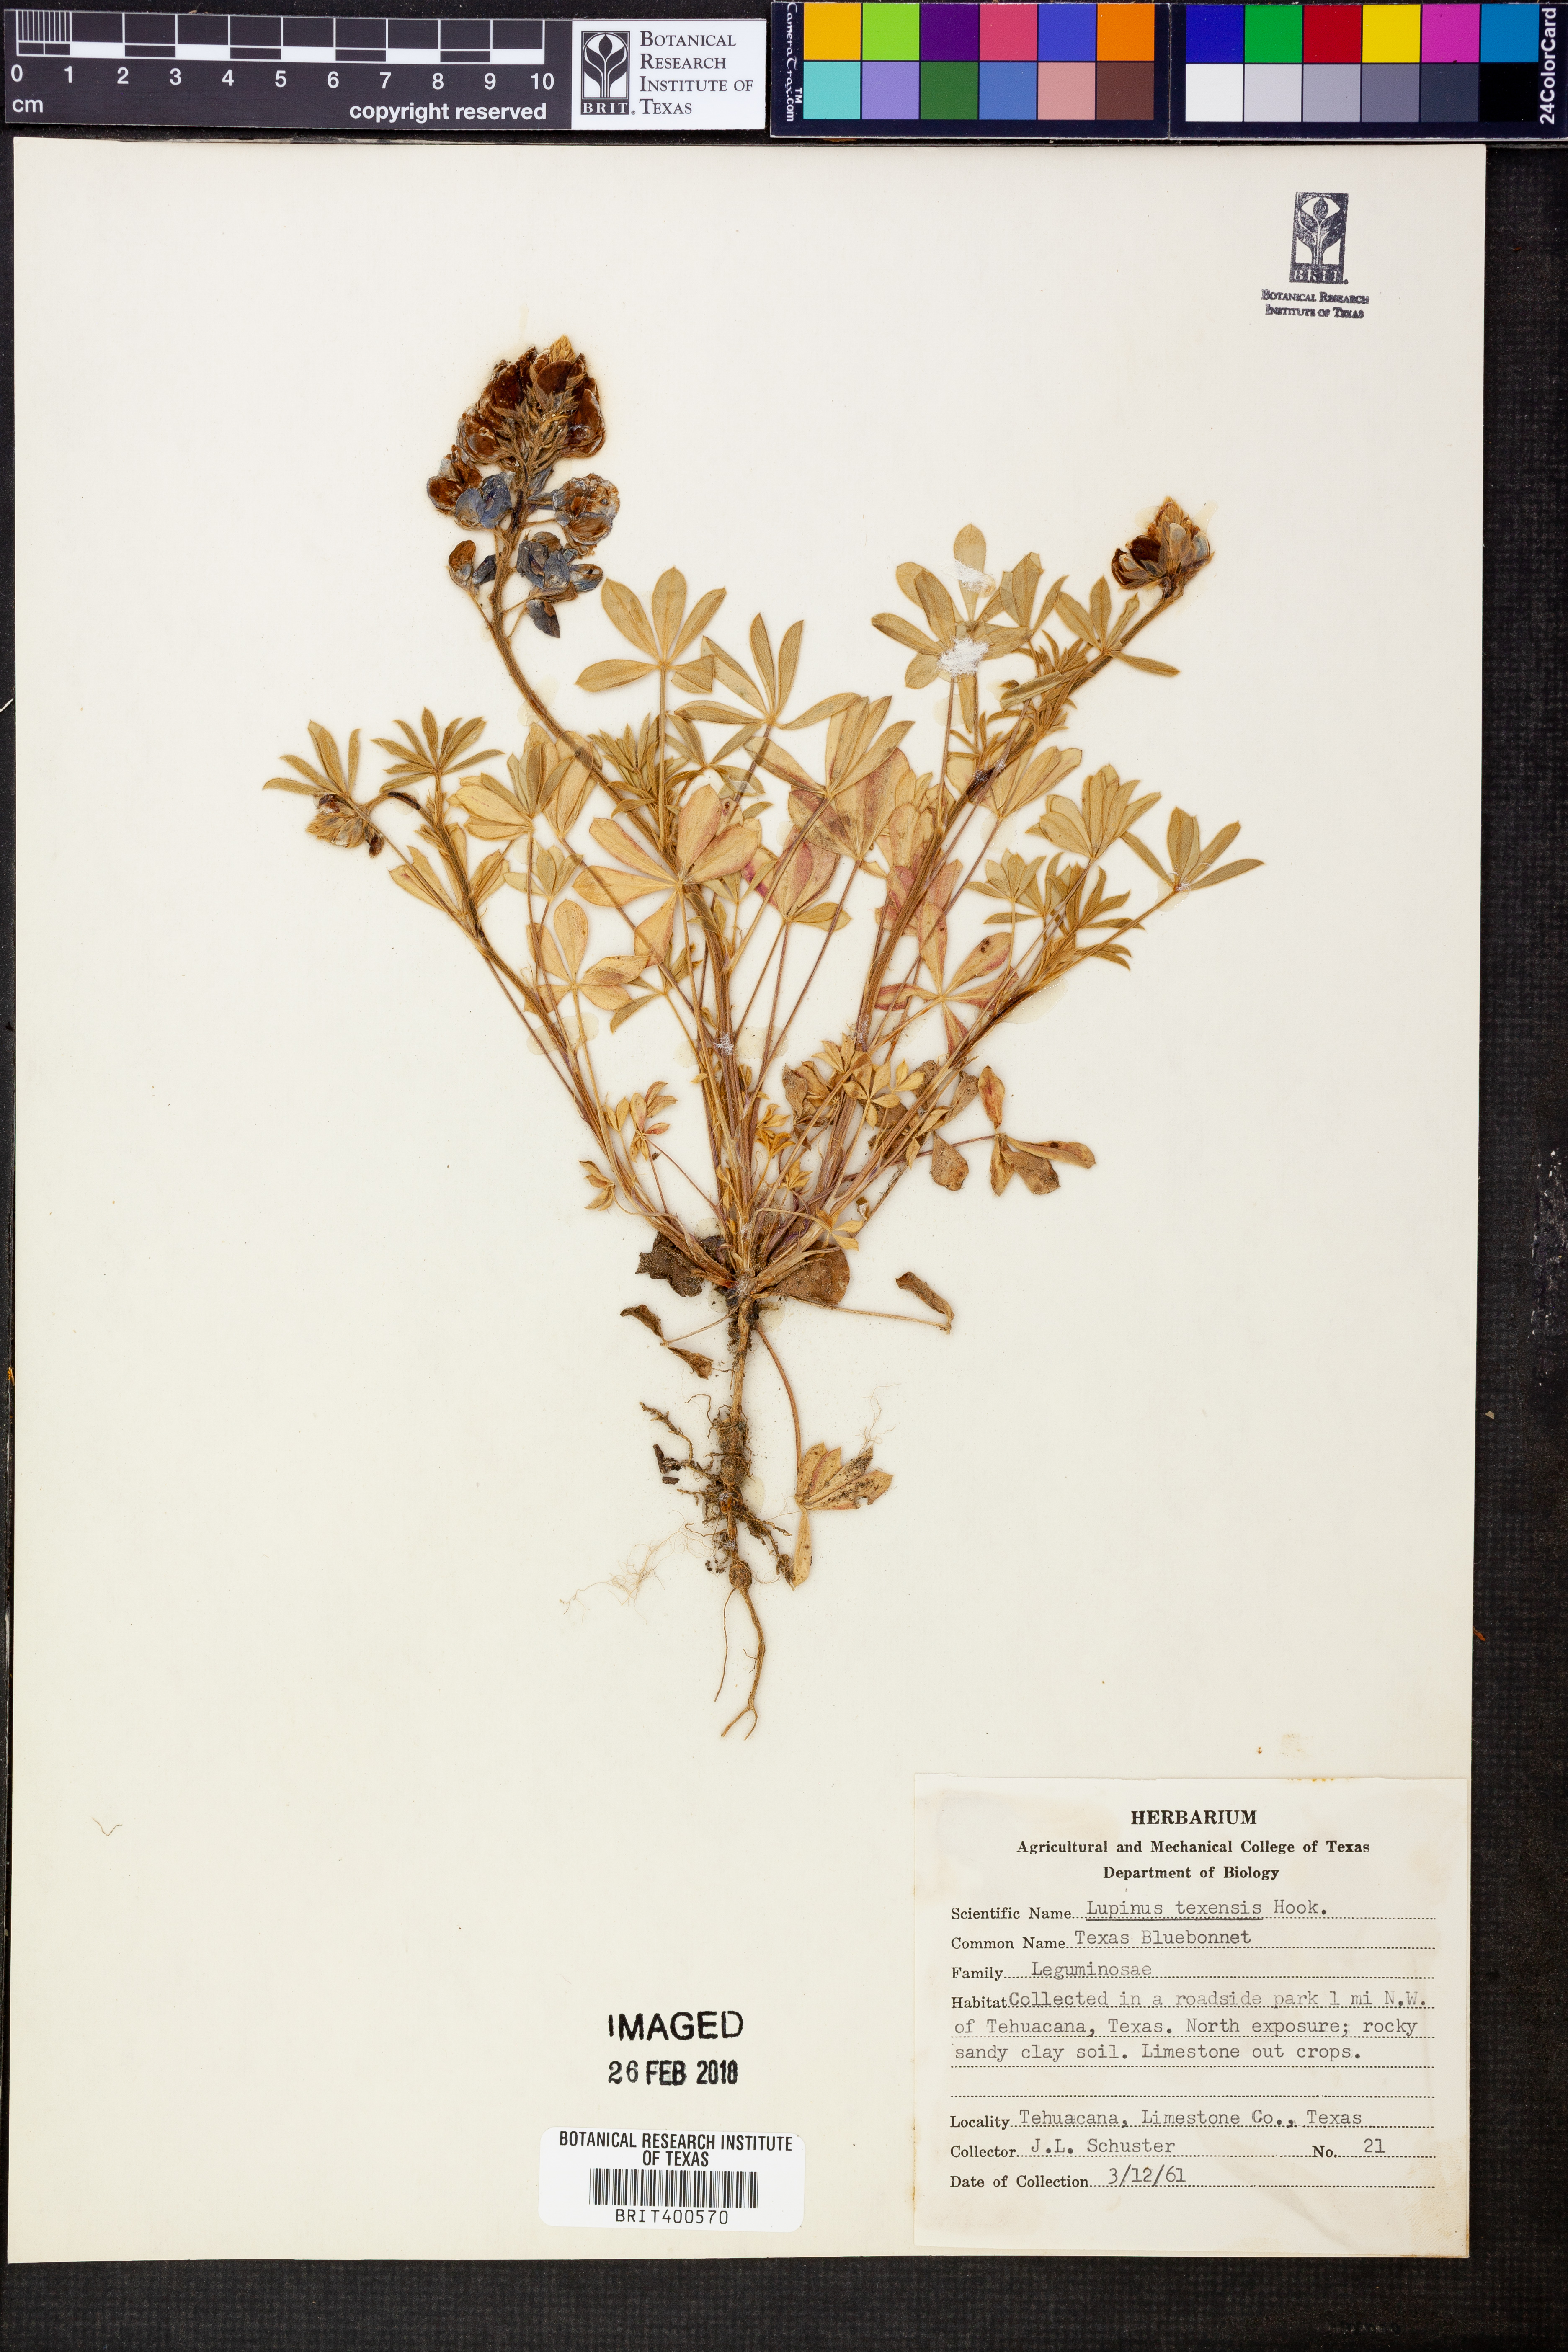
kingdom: Plantae
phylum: Tracheophyta
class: Magnoliopsida
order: Fabales
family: Fabaceae
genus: Lupinus
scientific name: Lupinus texensis
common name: Texas bluebonnet
